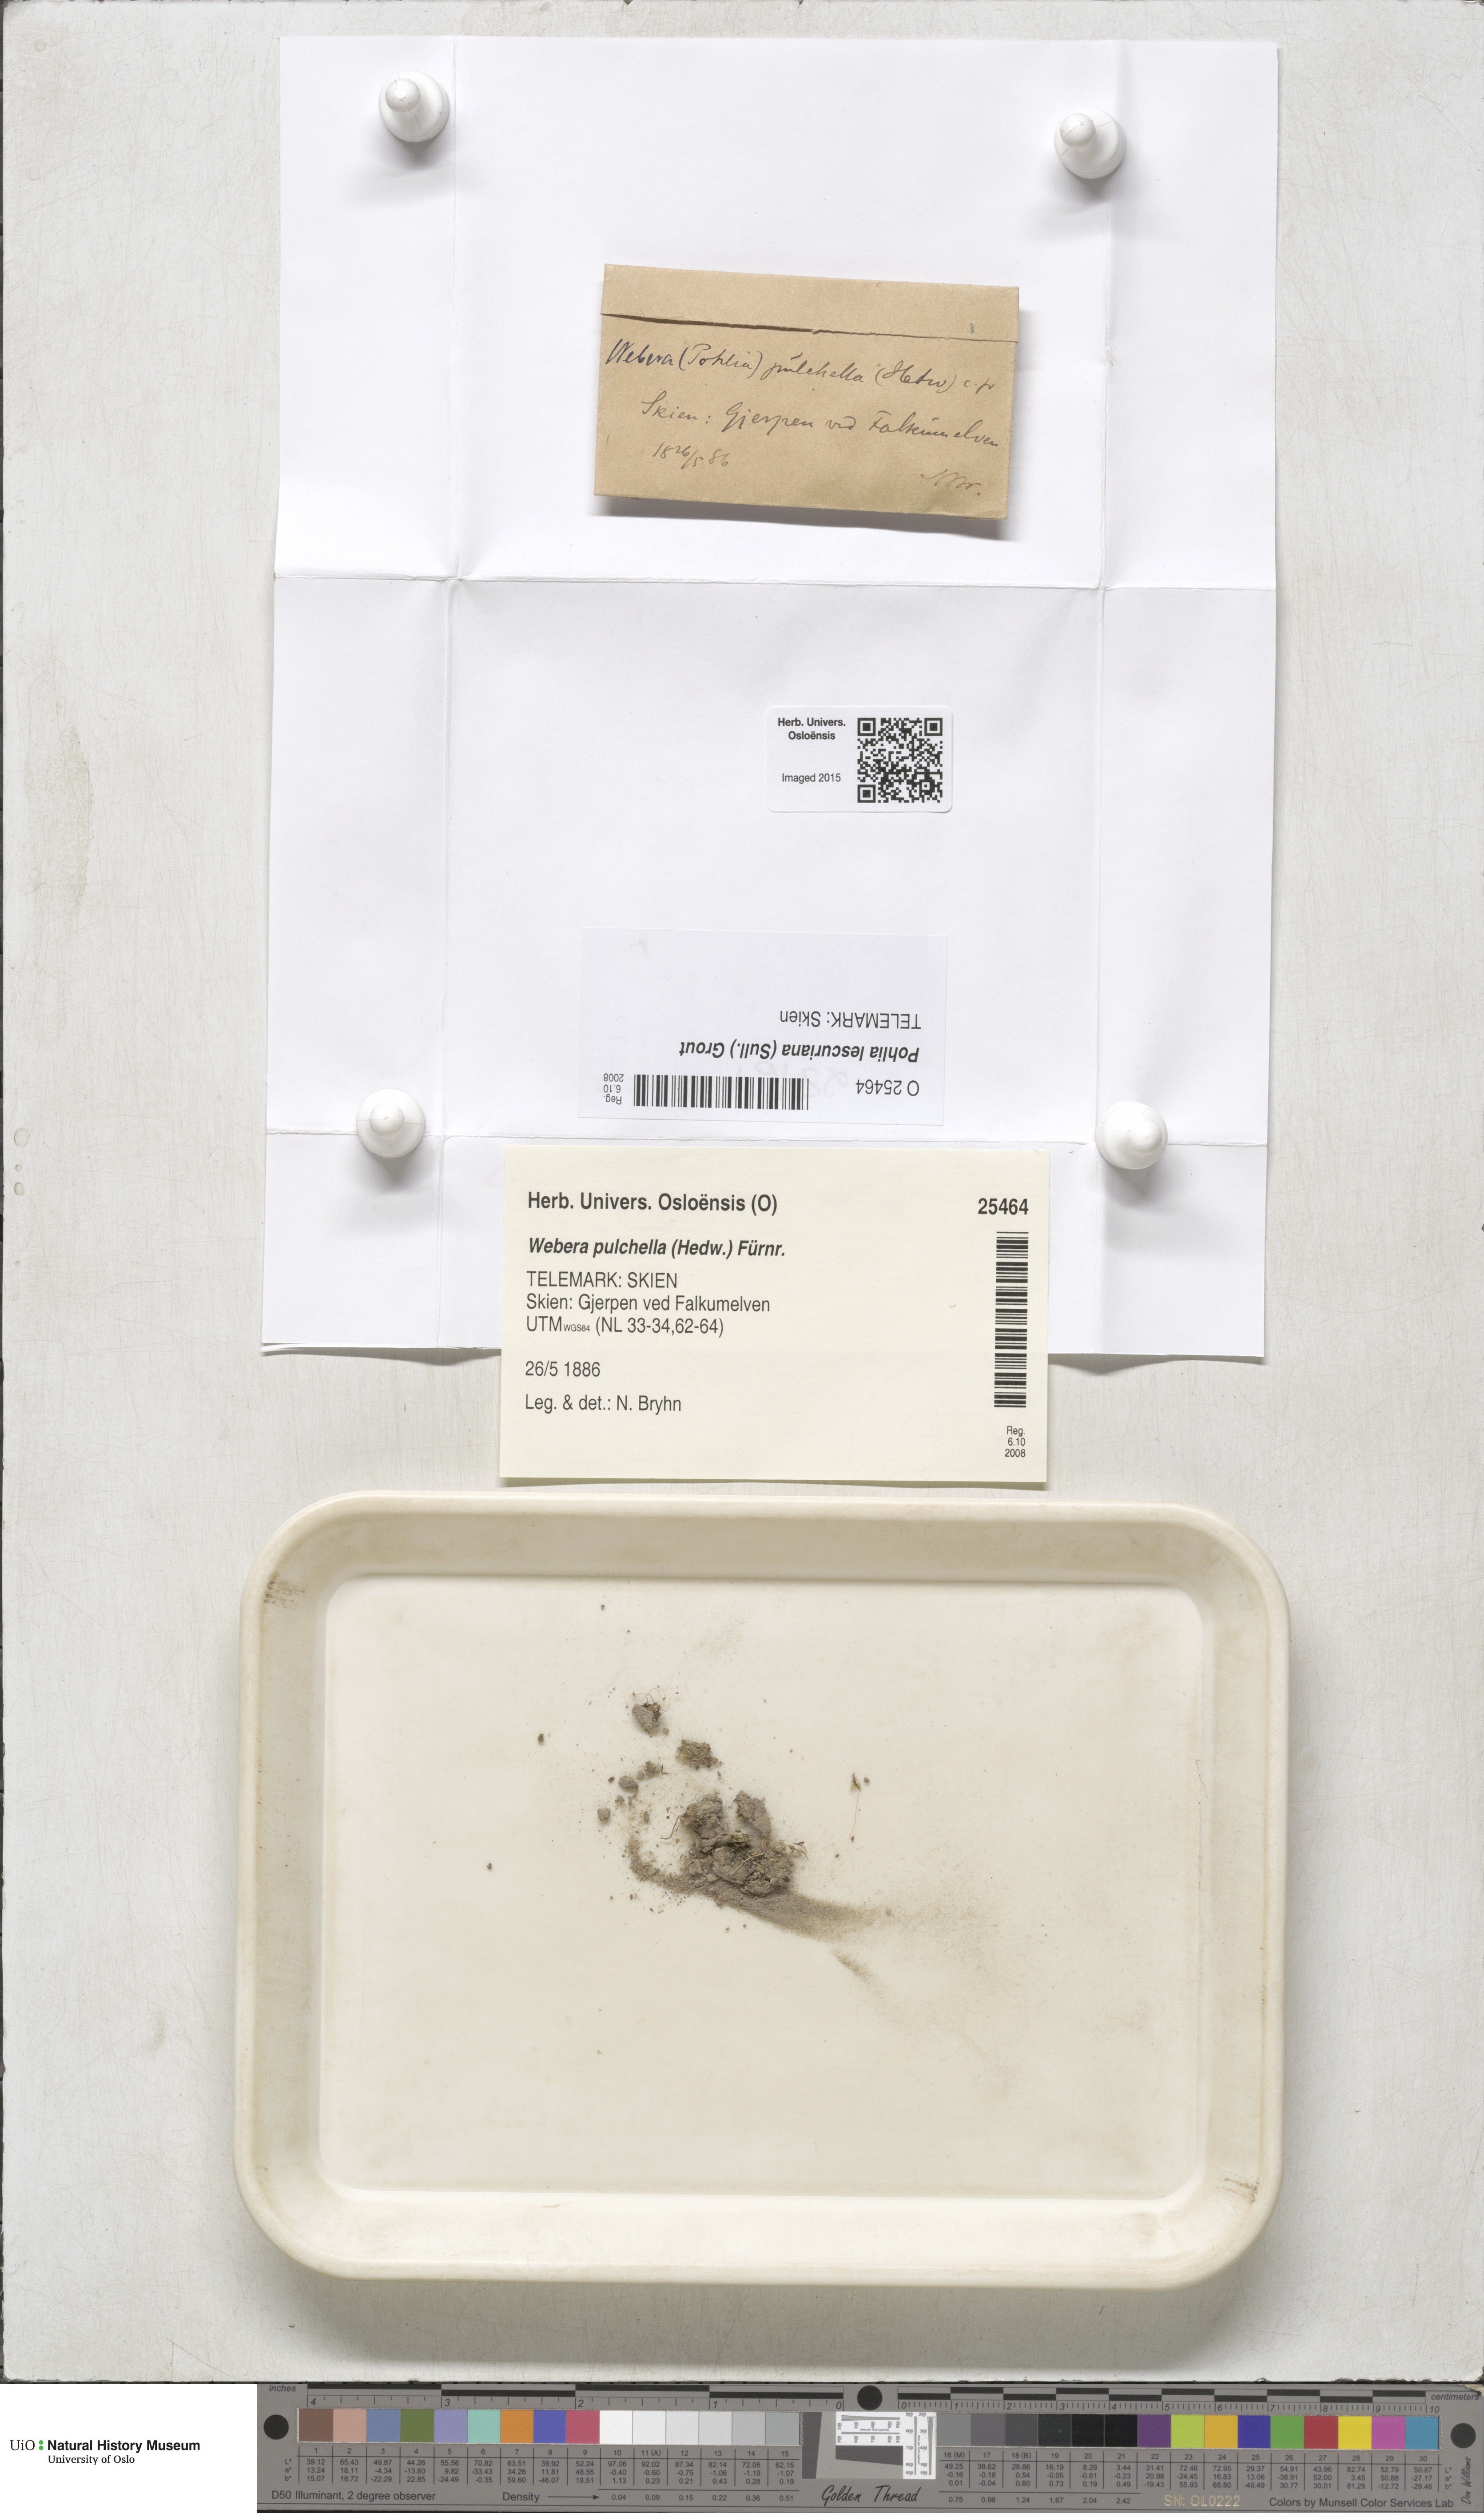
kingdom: Plantae
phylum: Bryophyta
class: Bryopsida
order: Bryales
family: Mniaceae
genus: Pohlia
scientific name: Pohlia lescuriana
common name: Pear-shaped nodding moss
